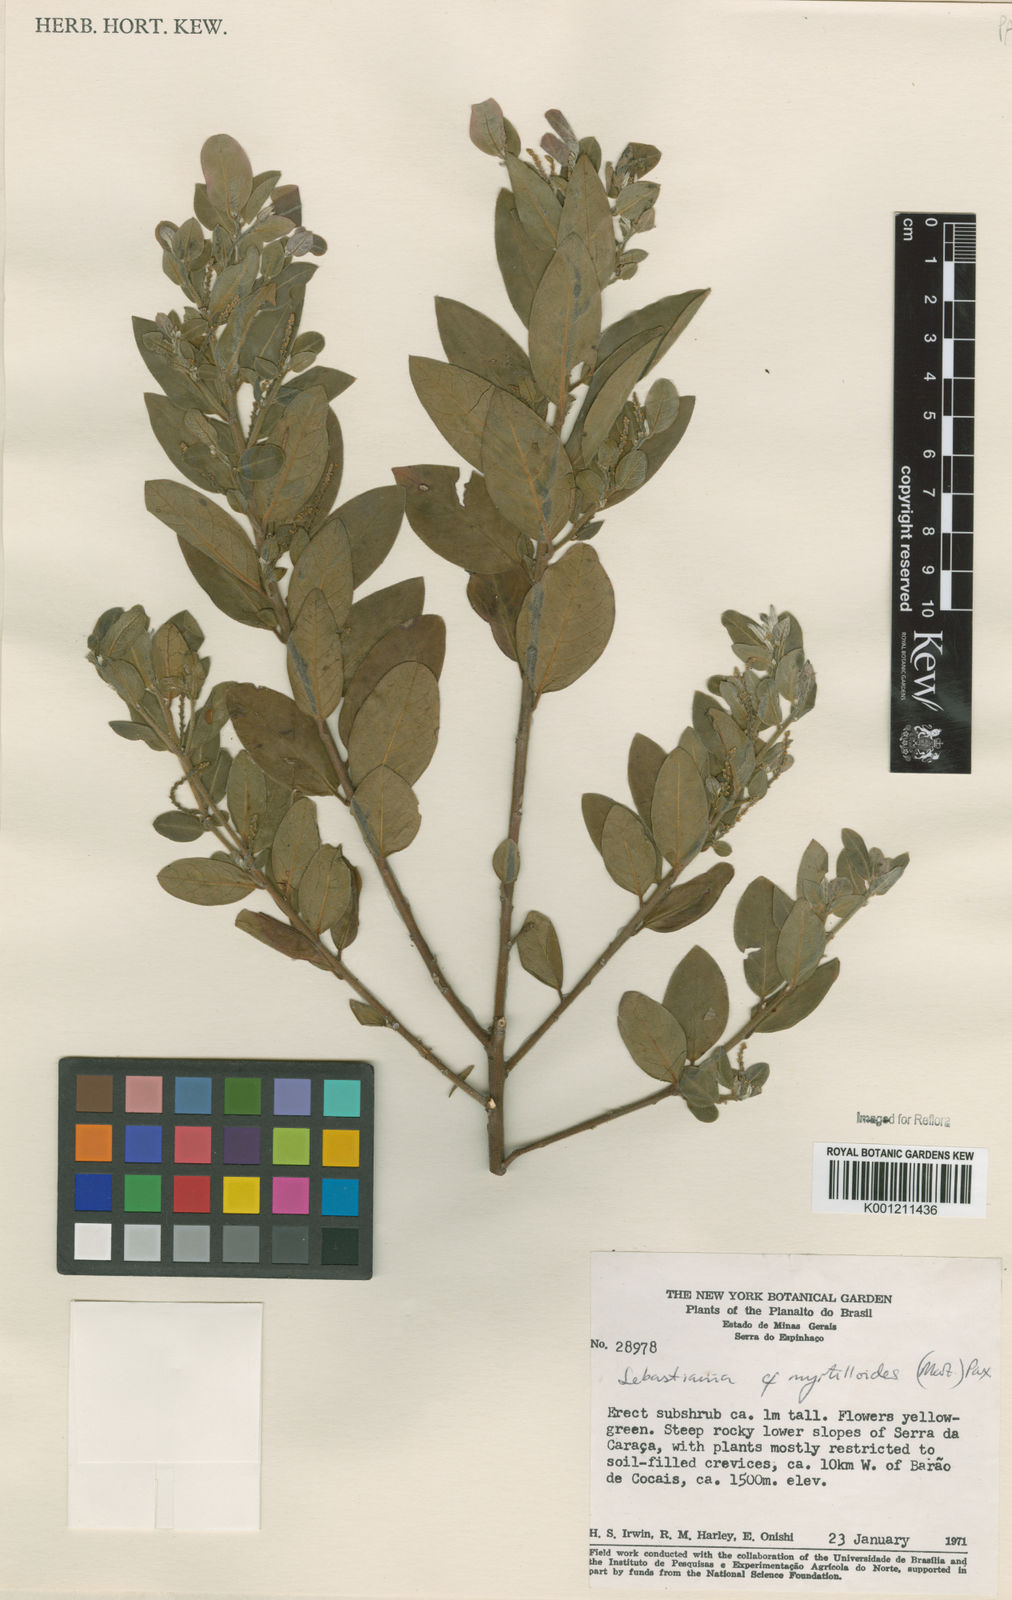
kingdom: Plantae
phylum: Tracheophyta
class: Magnoliopsida
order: Malpighiales
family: Euphorbiaceae
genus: Microstachys
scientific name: Microstachys
